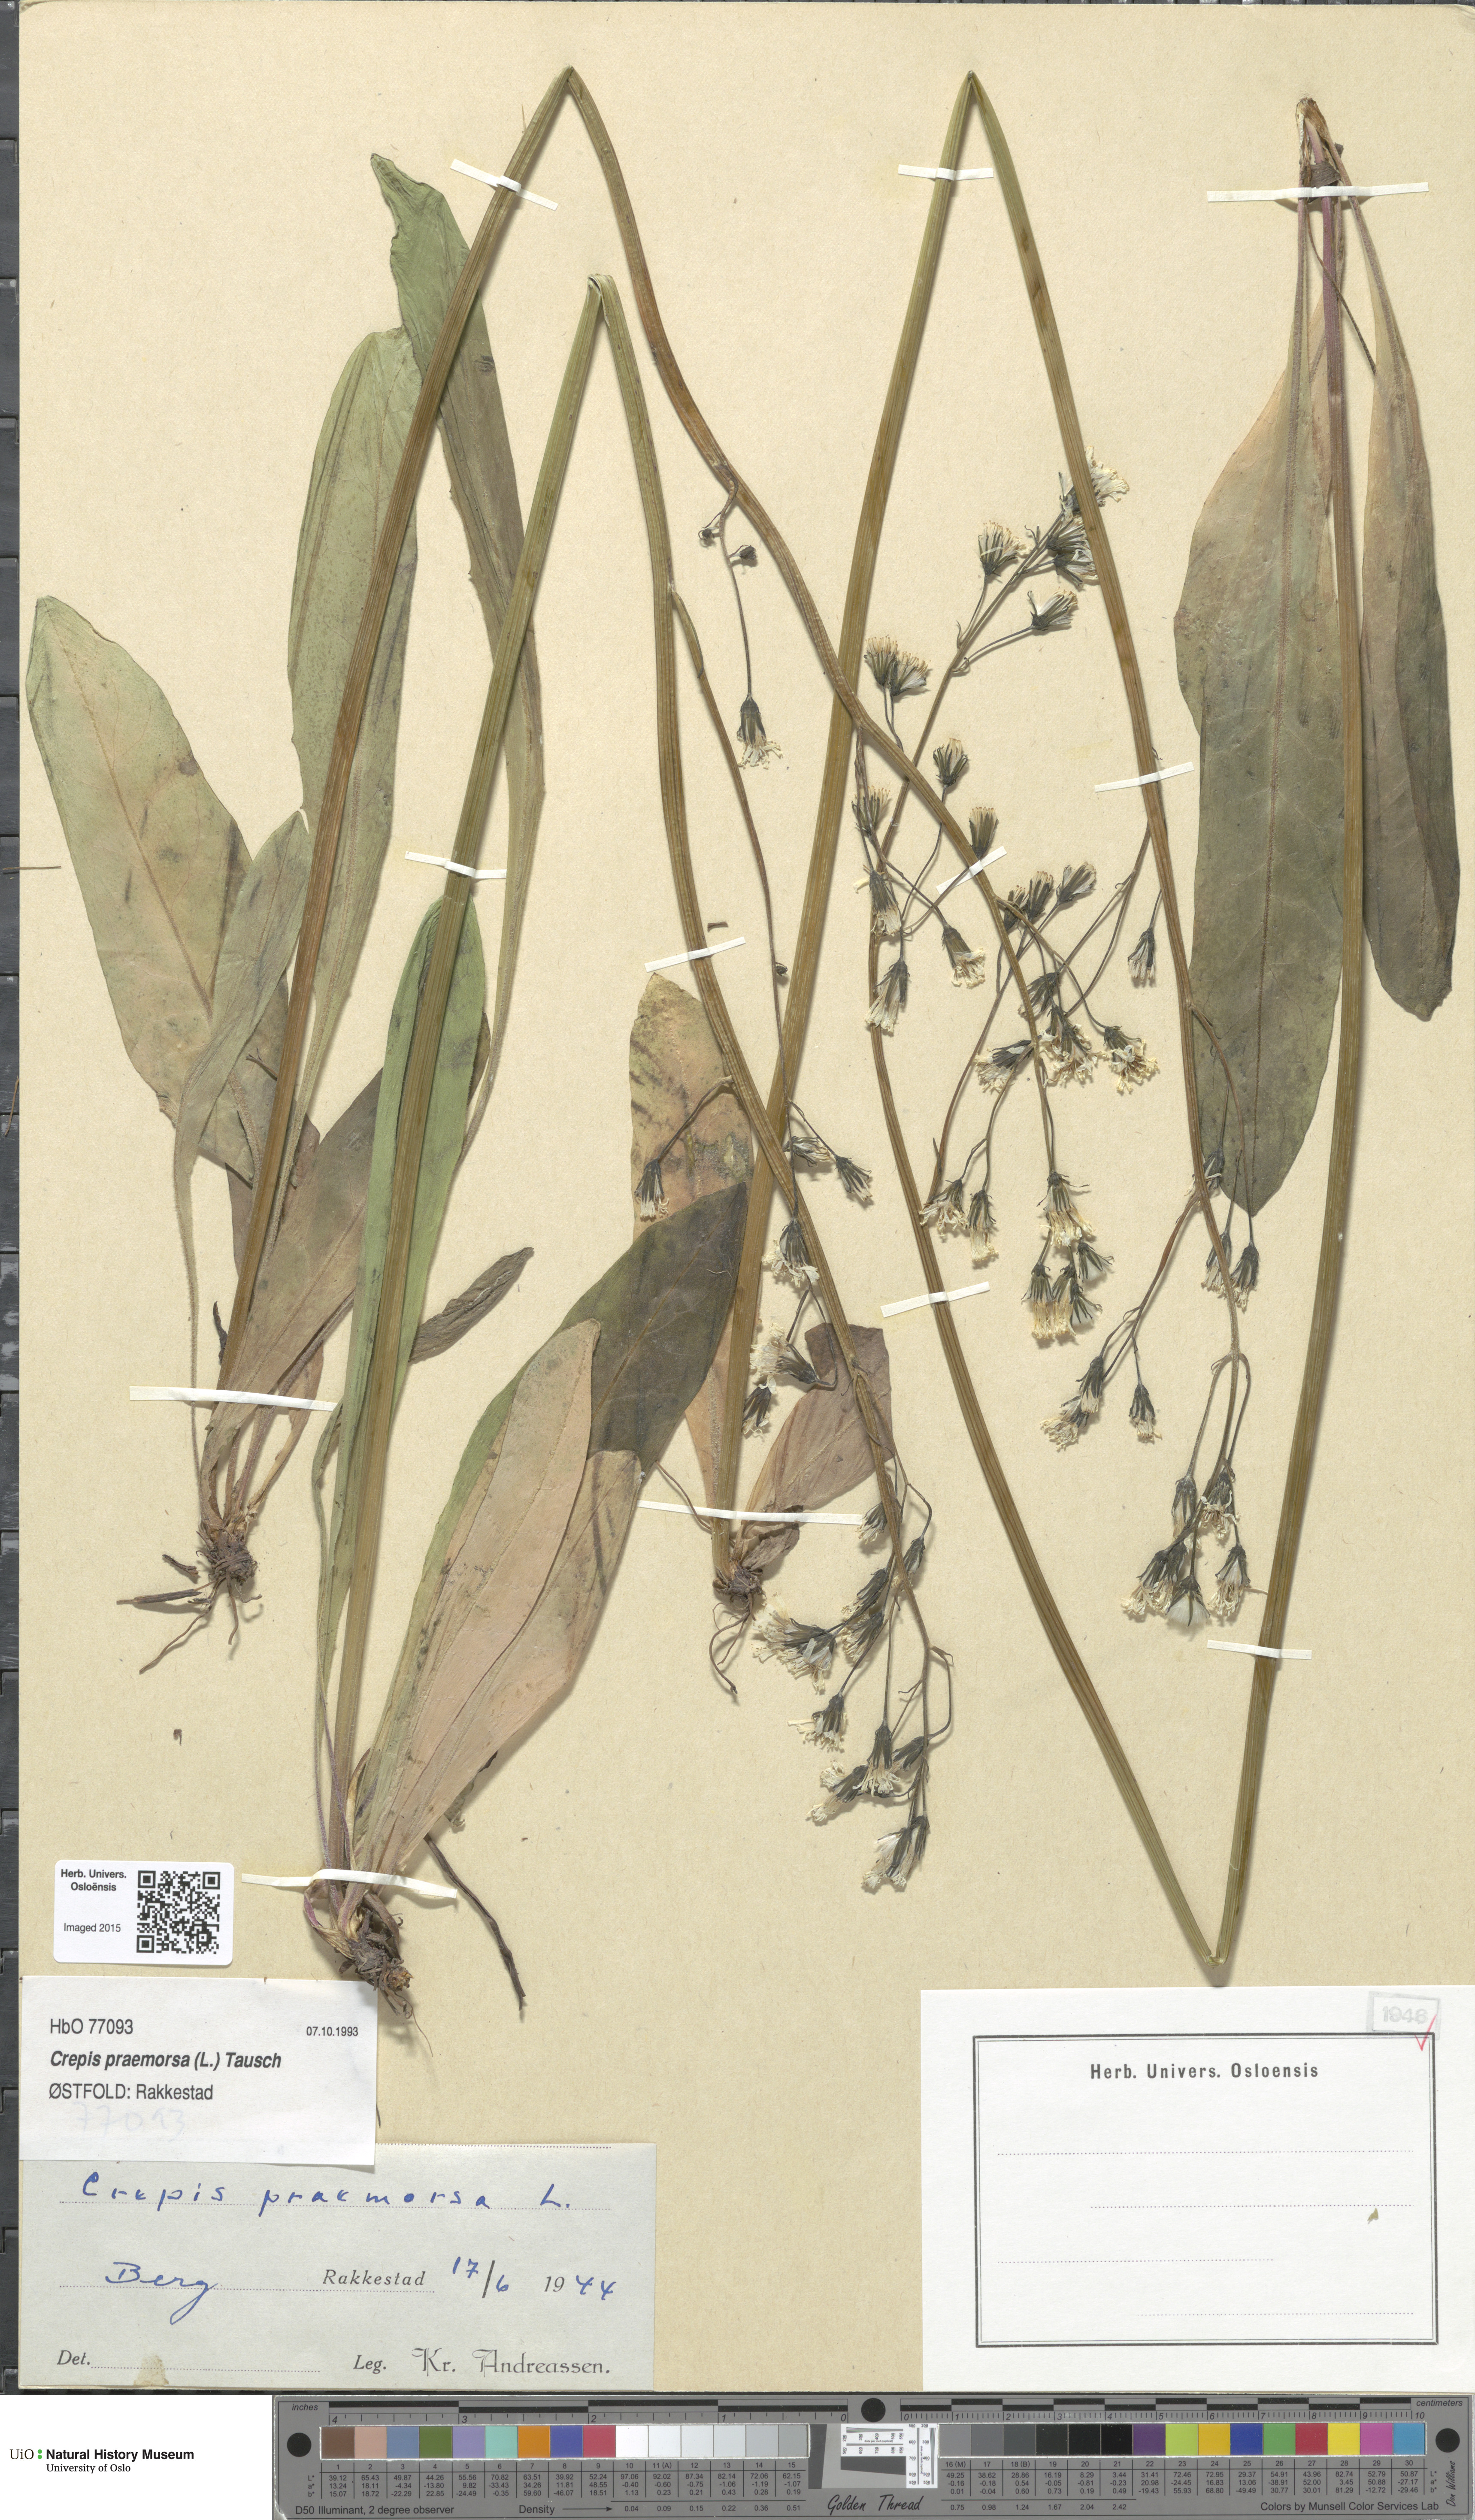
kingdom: Plantae
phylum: Tracheophyta
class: Magnoliopsida
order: Asterales
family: Asteraceae
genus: Crepis
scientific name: Crepis praemorsa
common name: Leafless hawk's-beard
